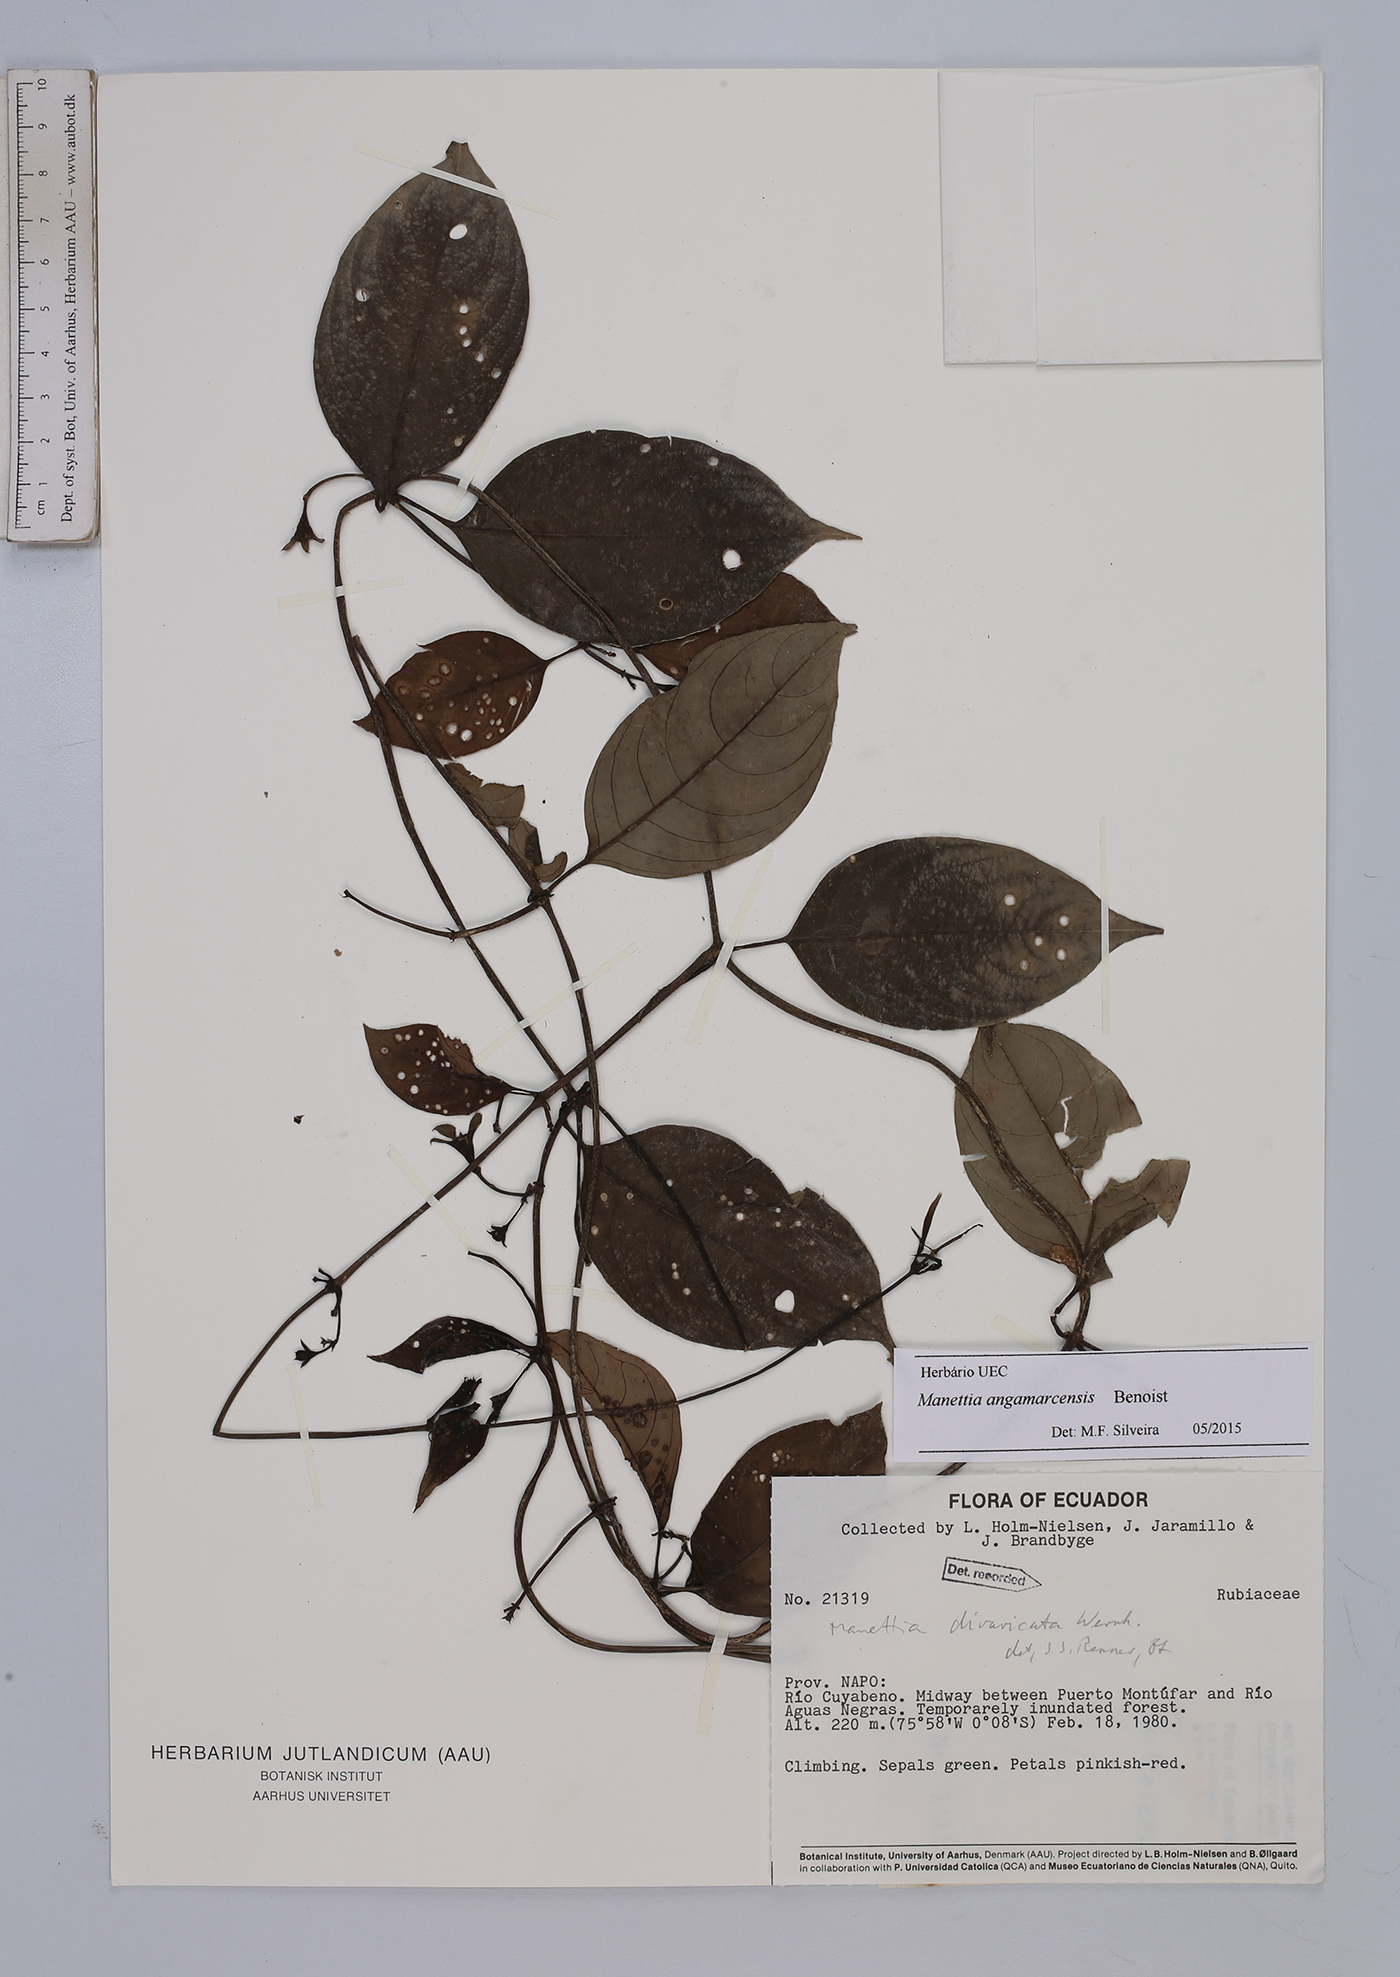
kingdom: Plantae
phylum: Tracheophyta
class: Magnoliopsida
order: Gentianales
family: Rubiaceae
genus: Manettia
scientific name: Manettia angamarcensis
